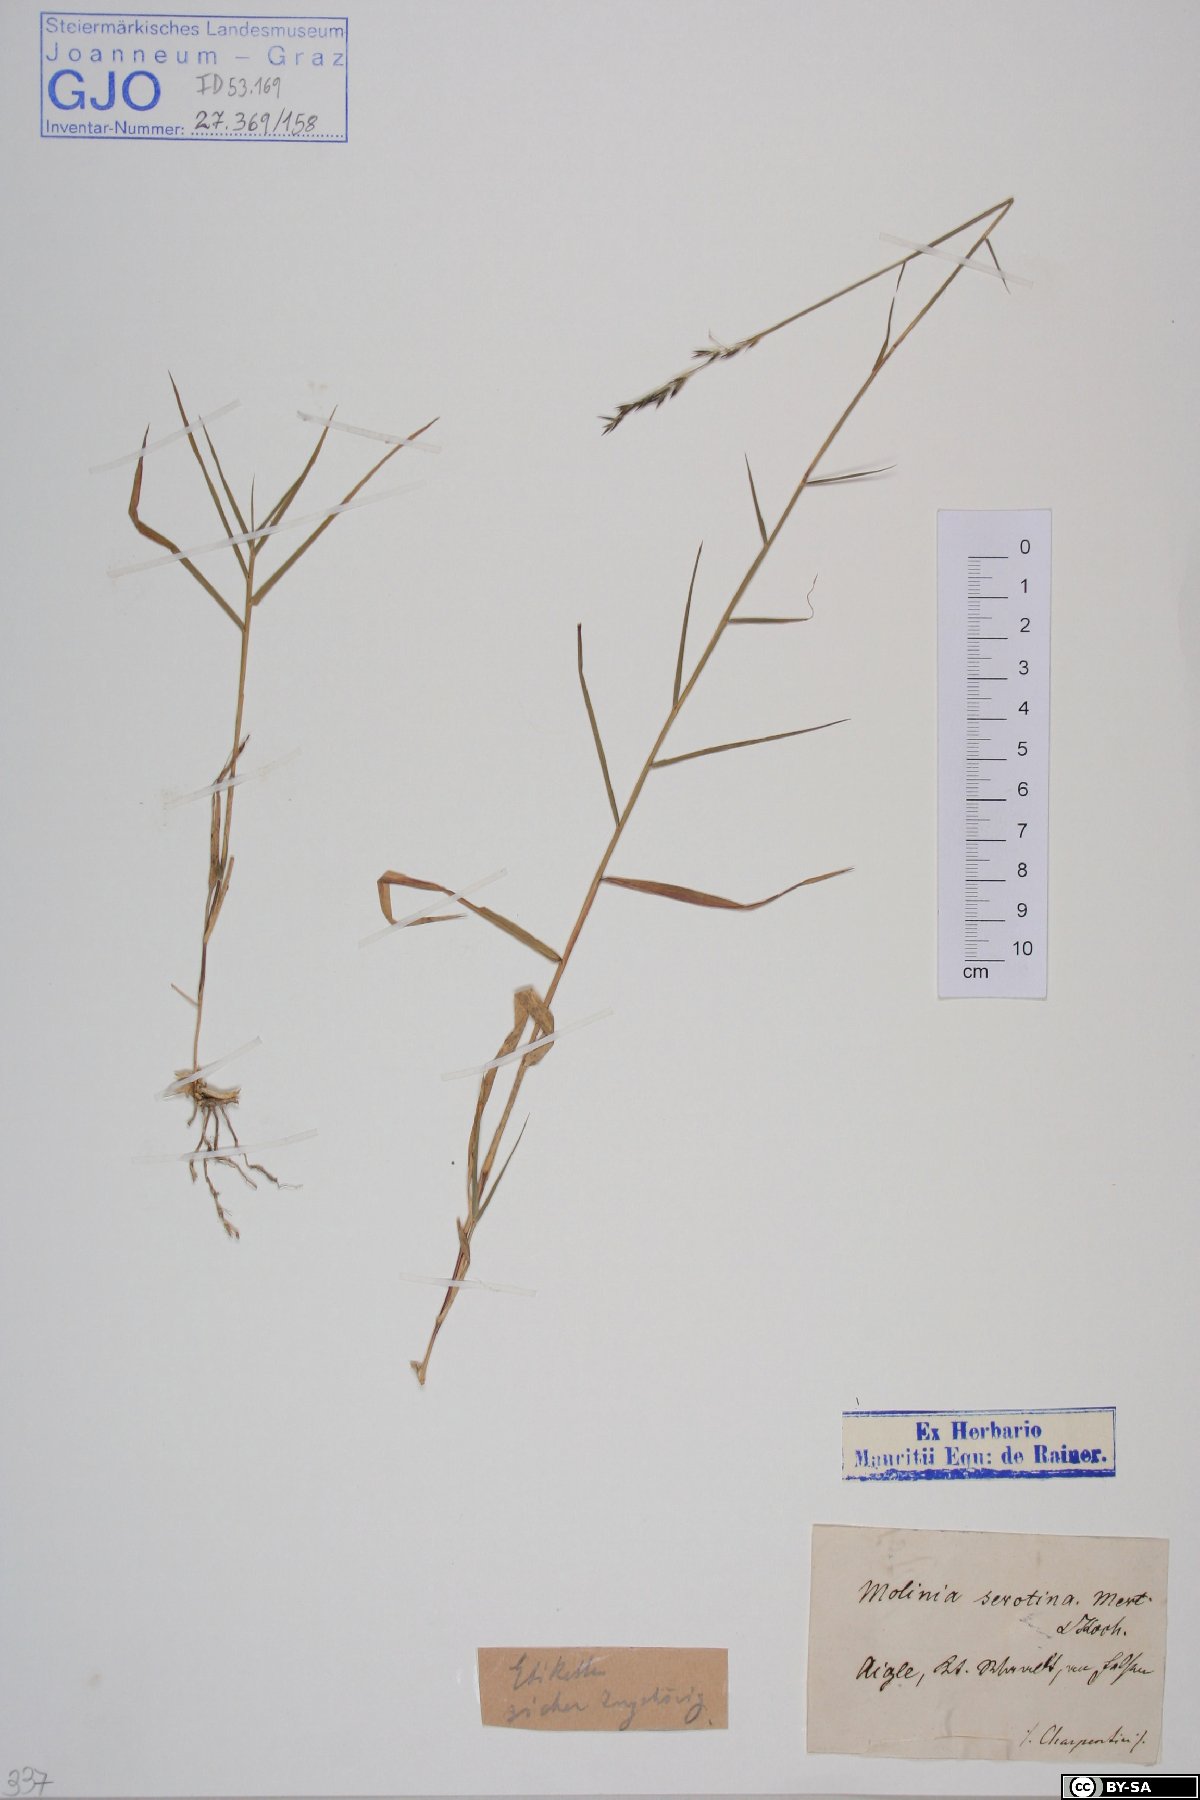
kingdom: Plantae
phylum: Tracheophyta
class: Liliopsida
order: Poales
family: Poaceae
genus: Cleistogenes
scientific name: Cleistogenes serotina
